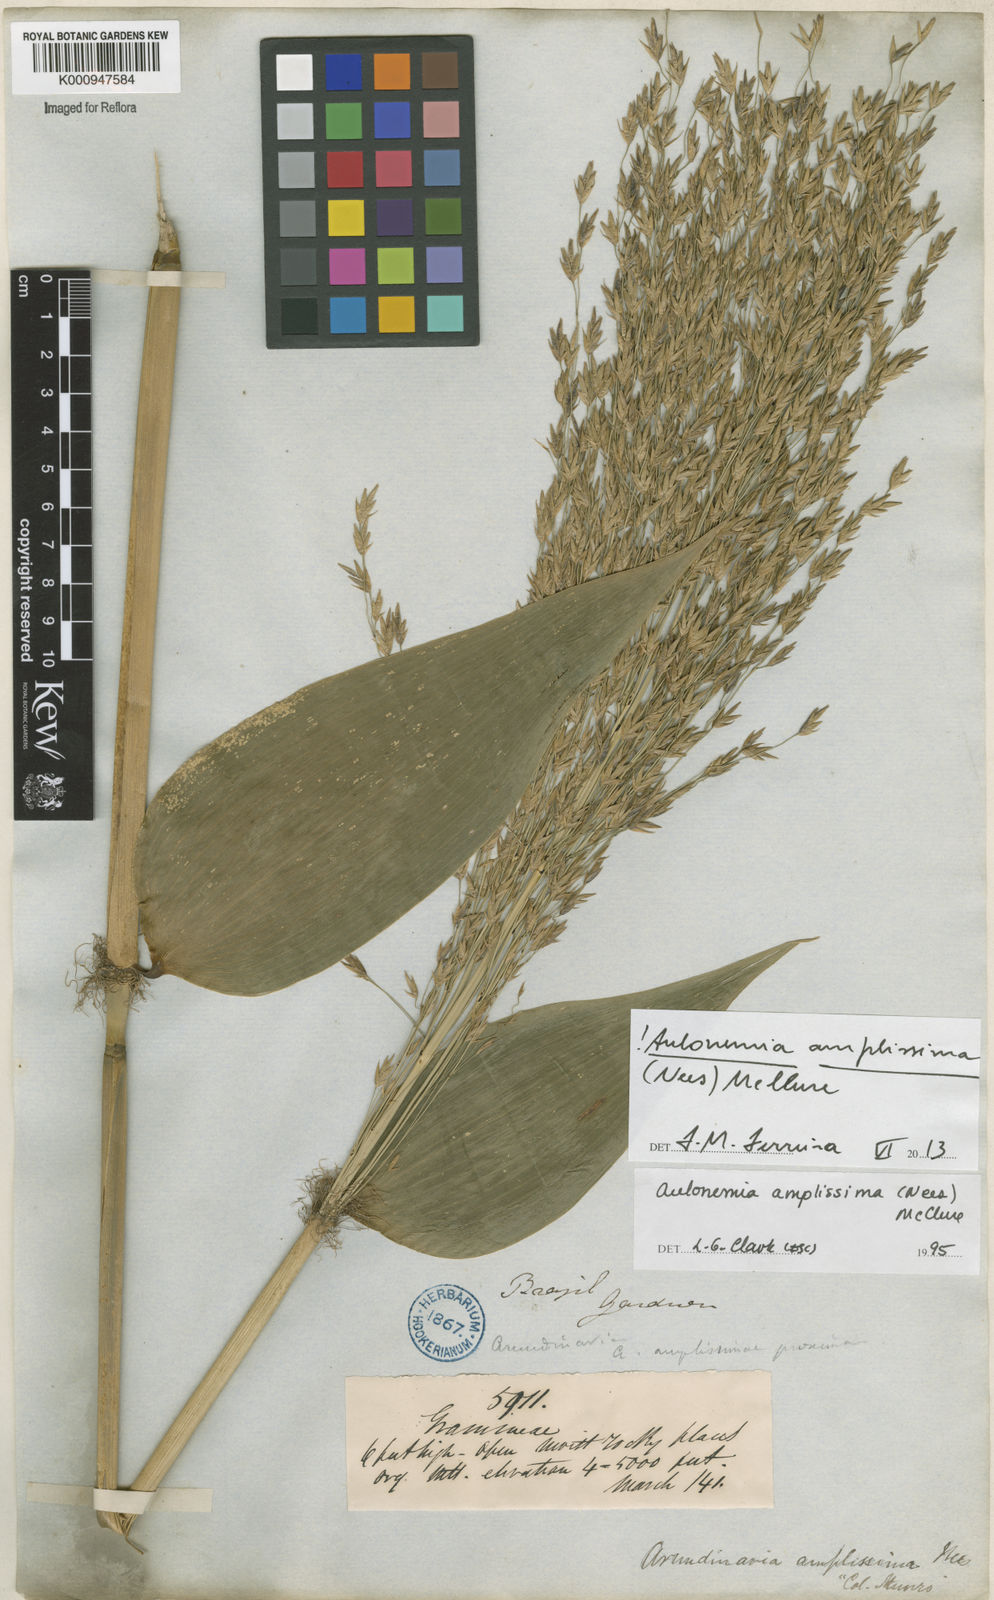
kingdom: Plantae
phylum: Tracheophyta
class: Liliopsida
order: Poales
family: Poaceae
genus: Aulonemia
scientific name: Aulonemia amplissima
